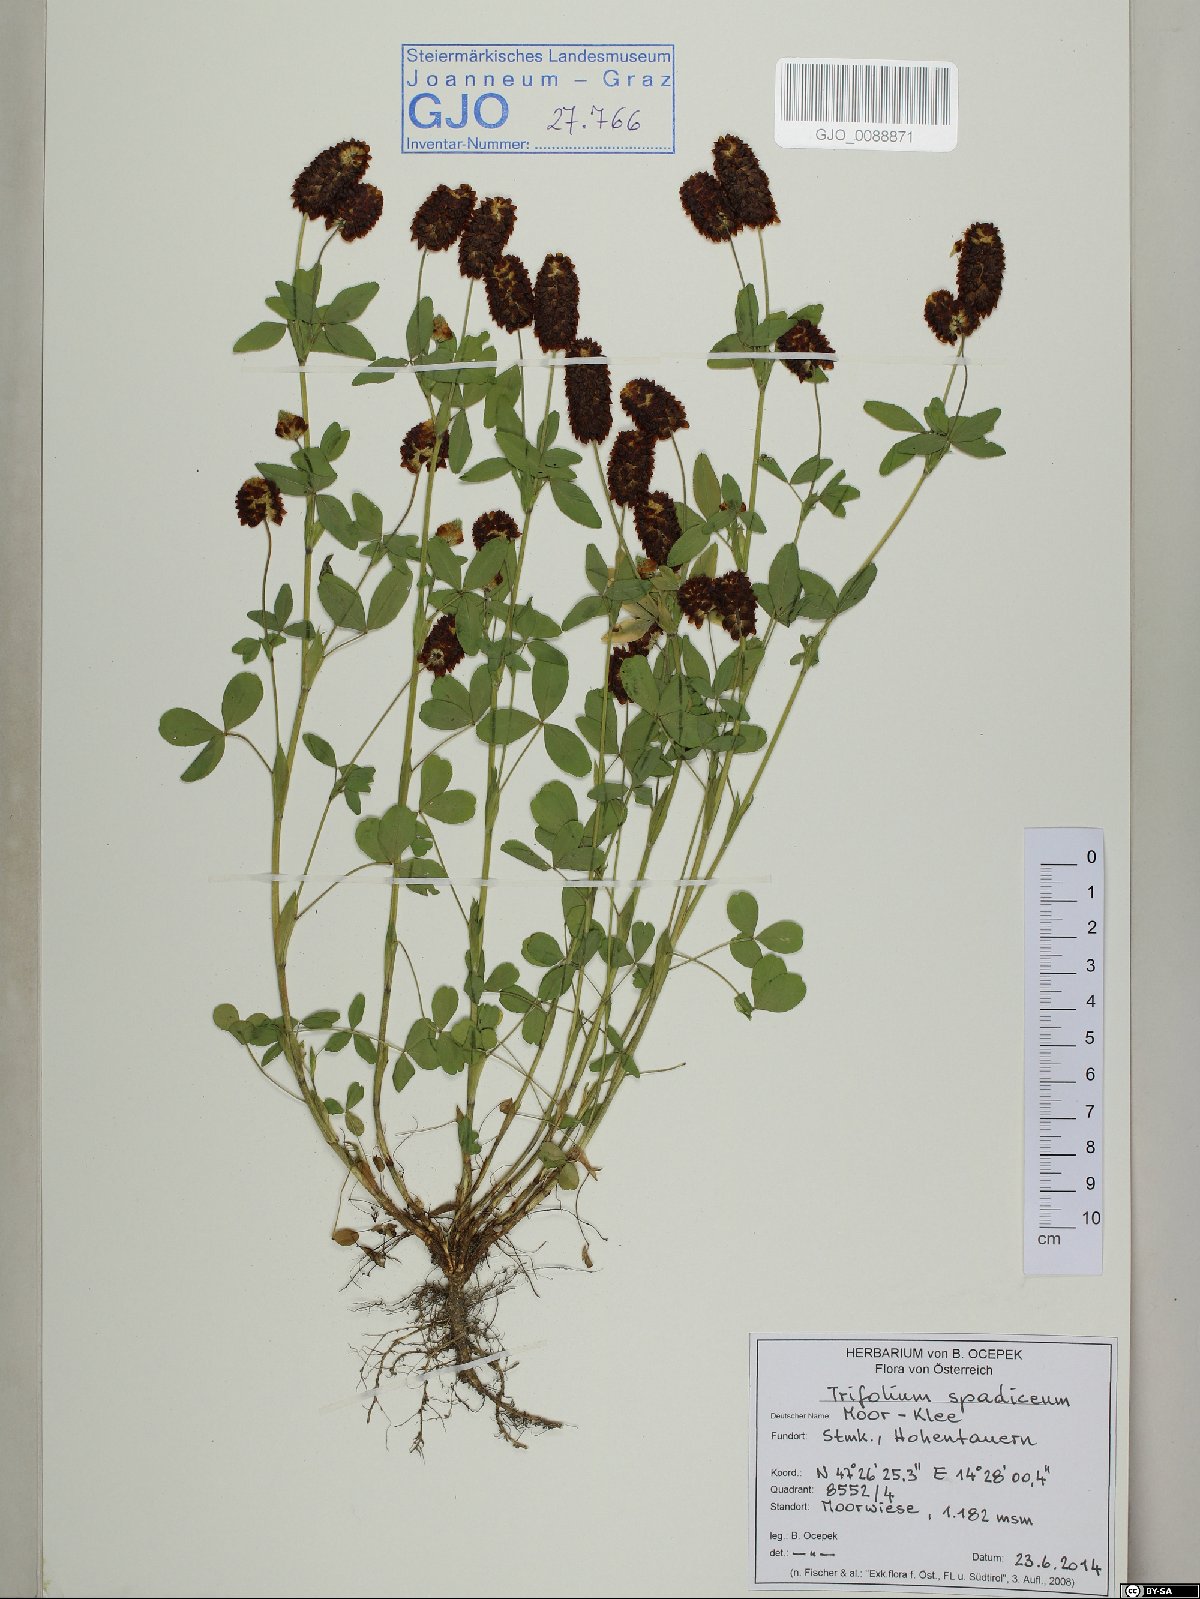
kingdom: Plantae
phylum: Tracheophyta
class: Magnoliopsida
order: Fabales
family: Fabaceae
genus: Trifolium
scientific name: Trifolium spadiceum
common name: Brown moor clover
